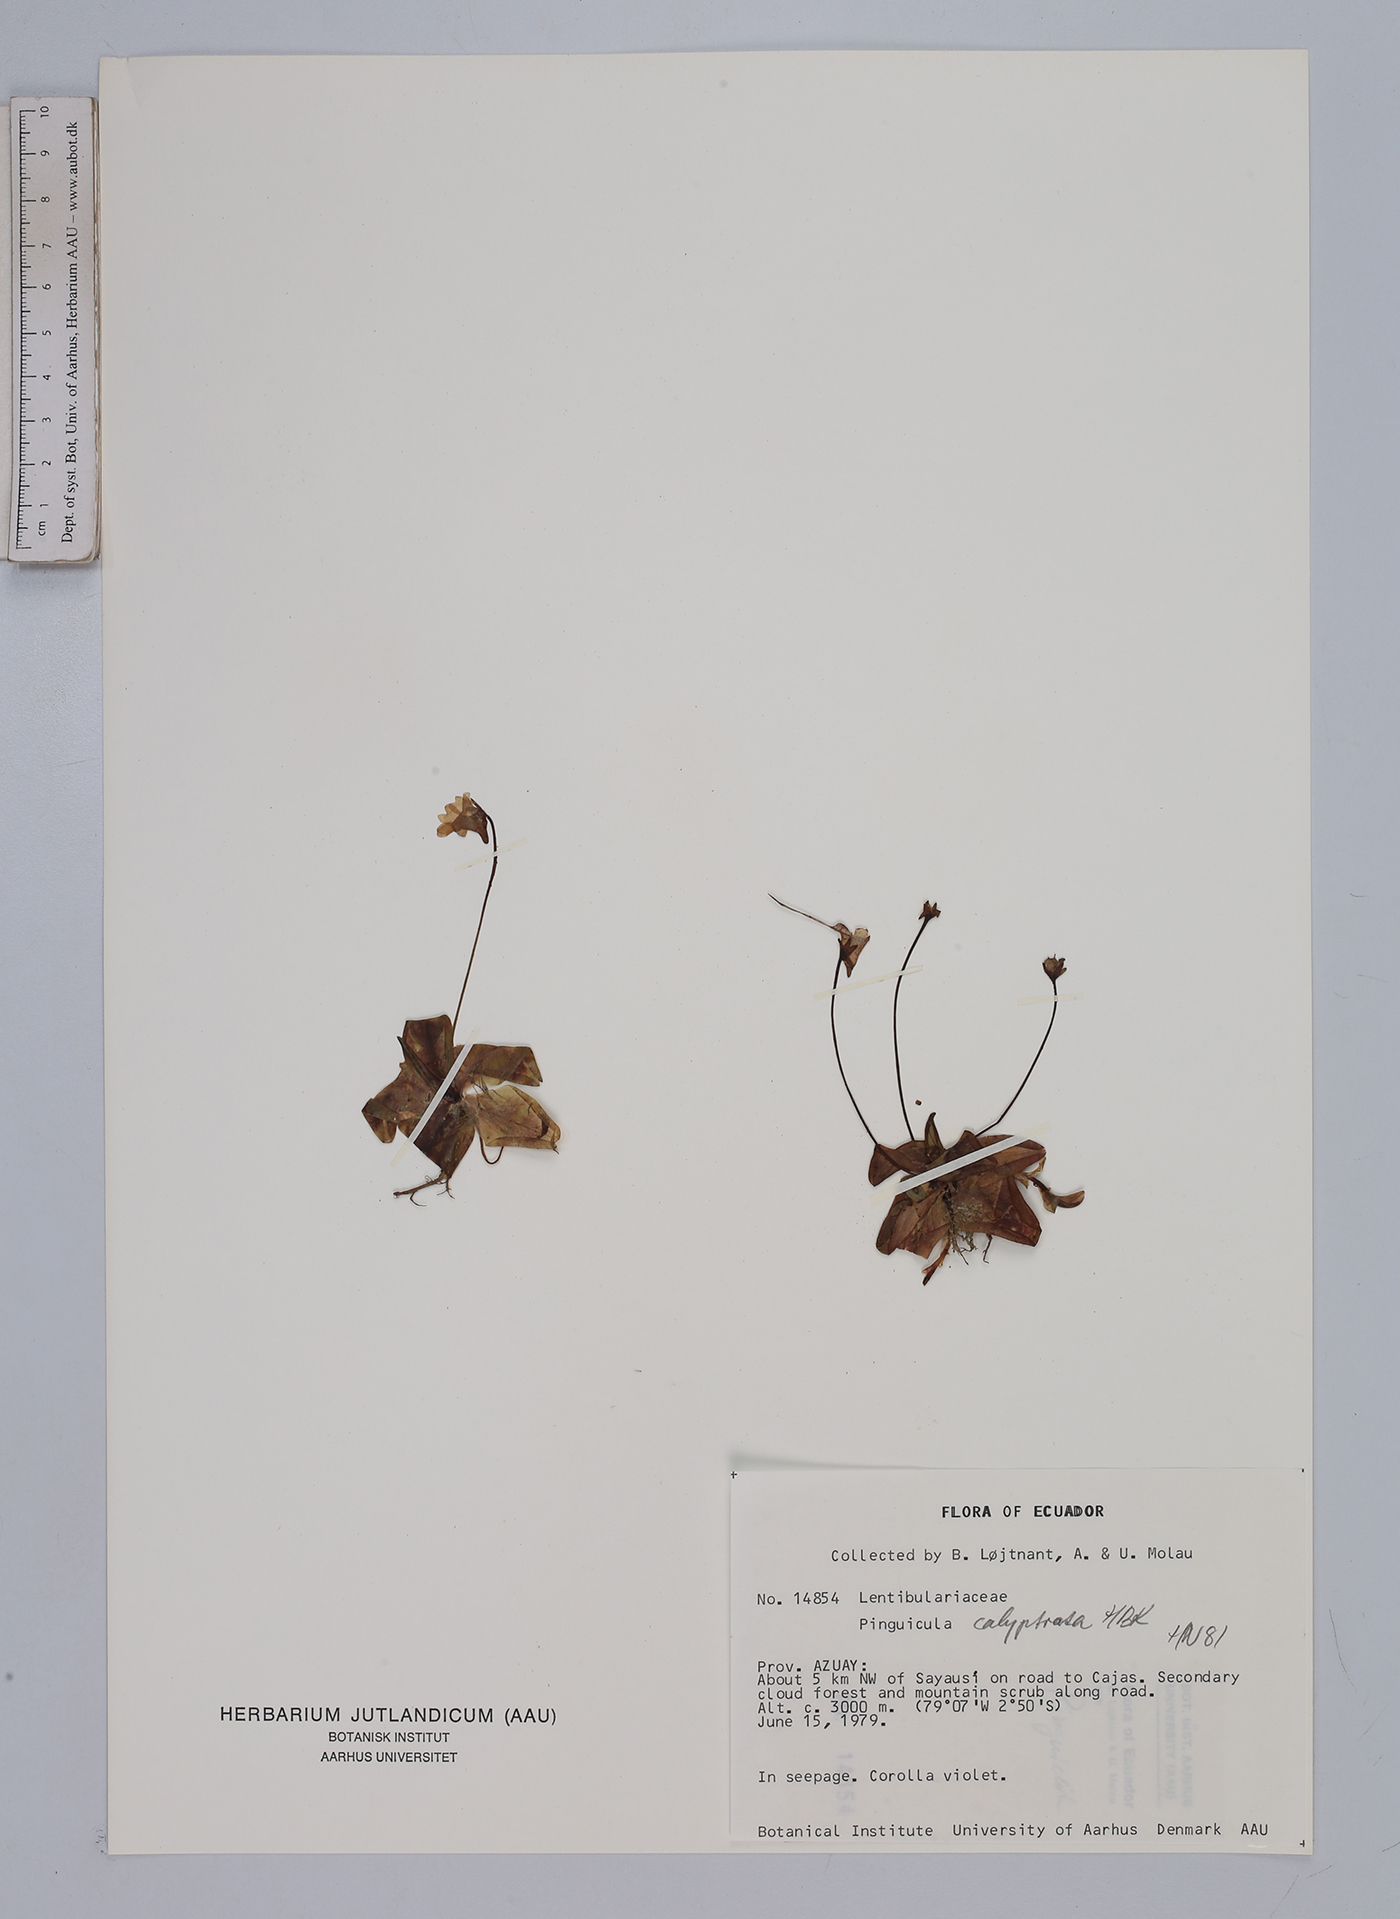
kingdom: Plantae
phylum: Tracheophyta
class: Magnoliopsida
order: Lamiales
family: Lentibulariaceae
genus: Pinguicula
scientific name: Pinguicula calyptrata
